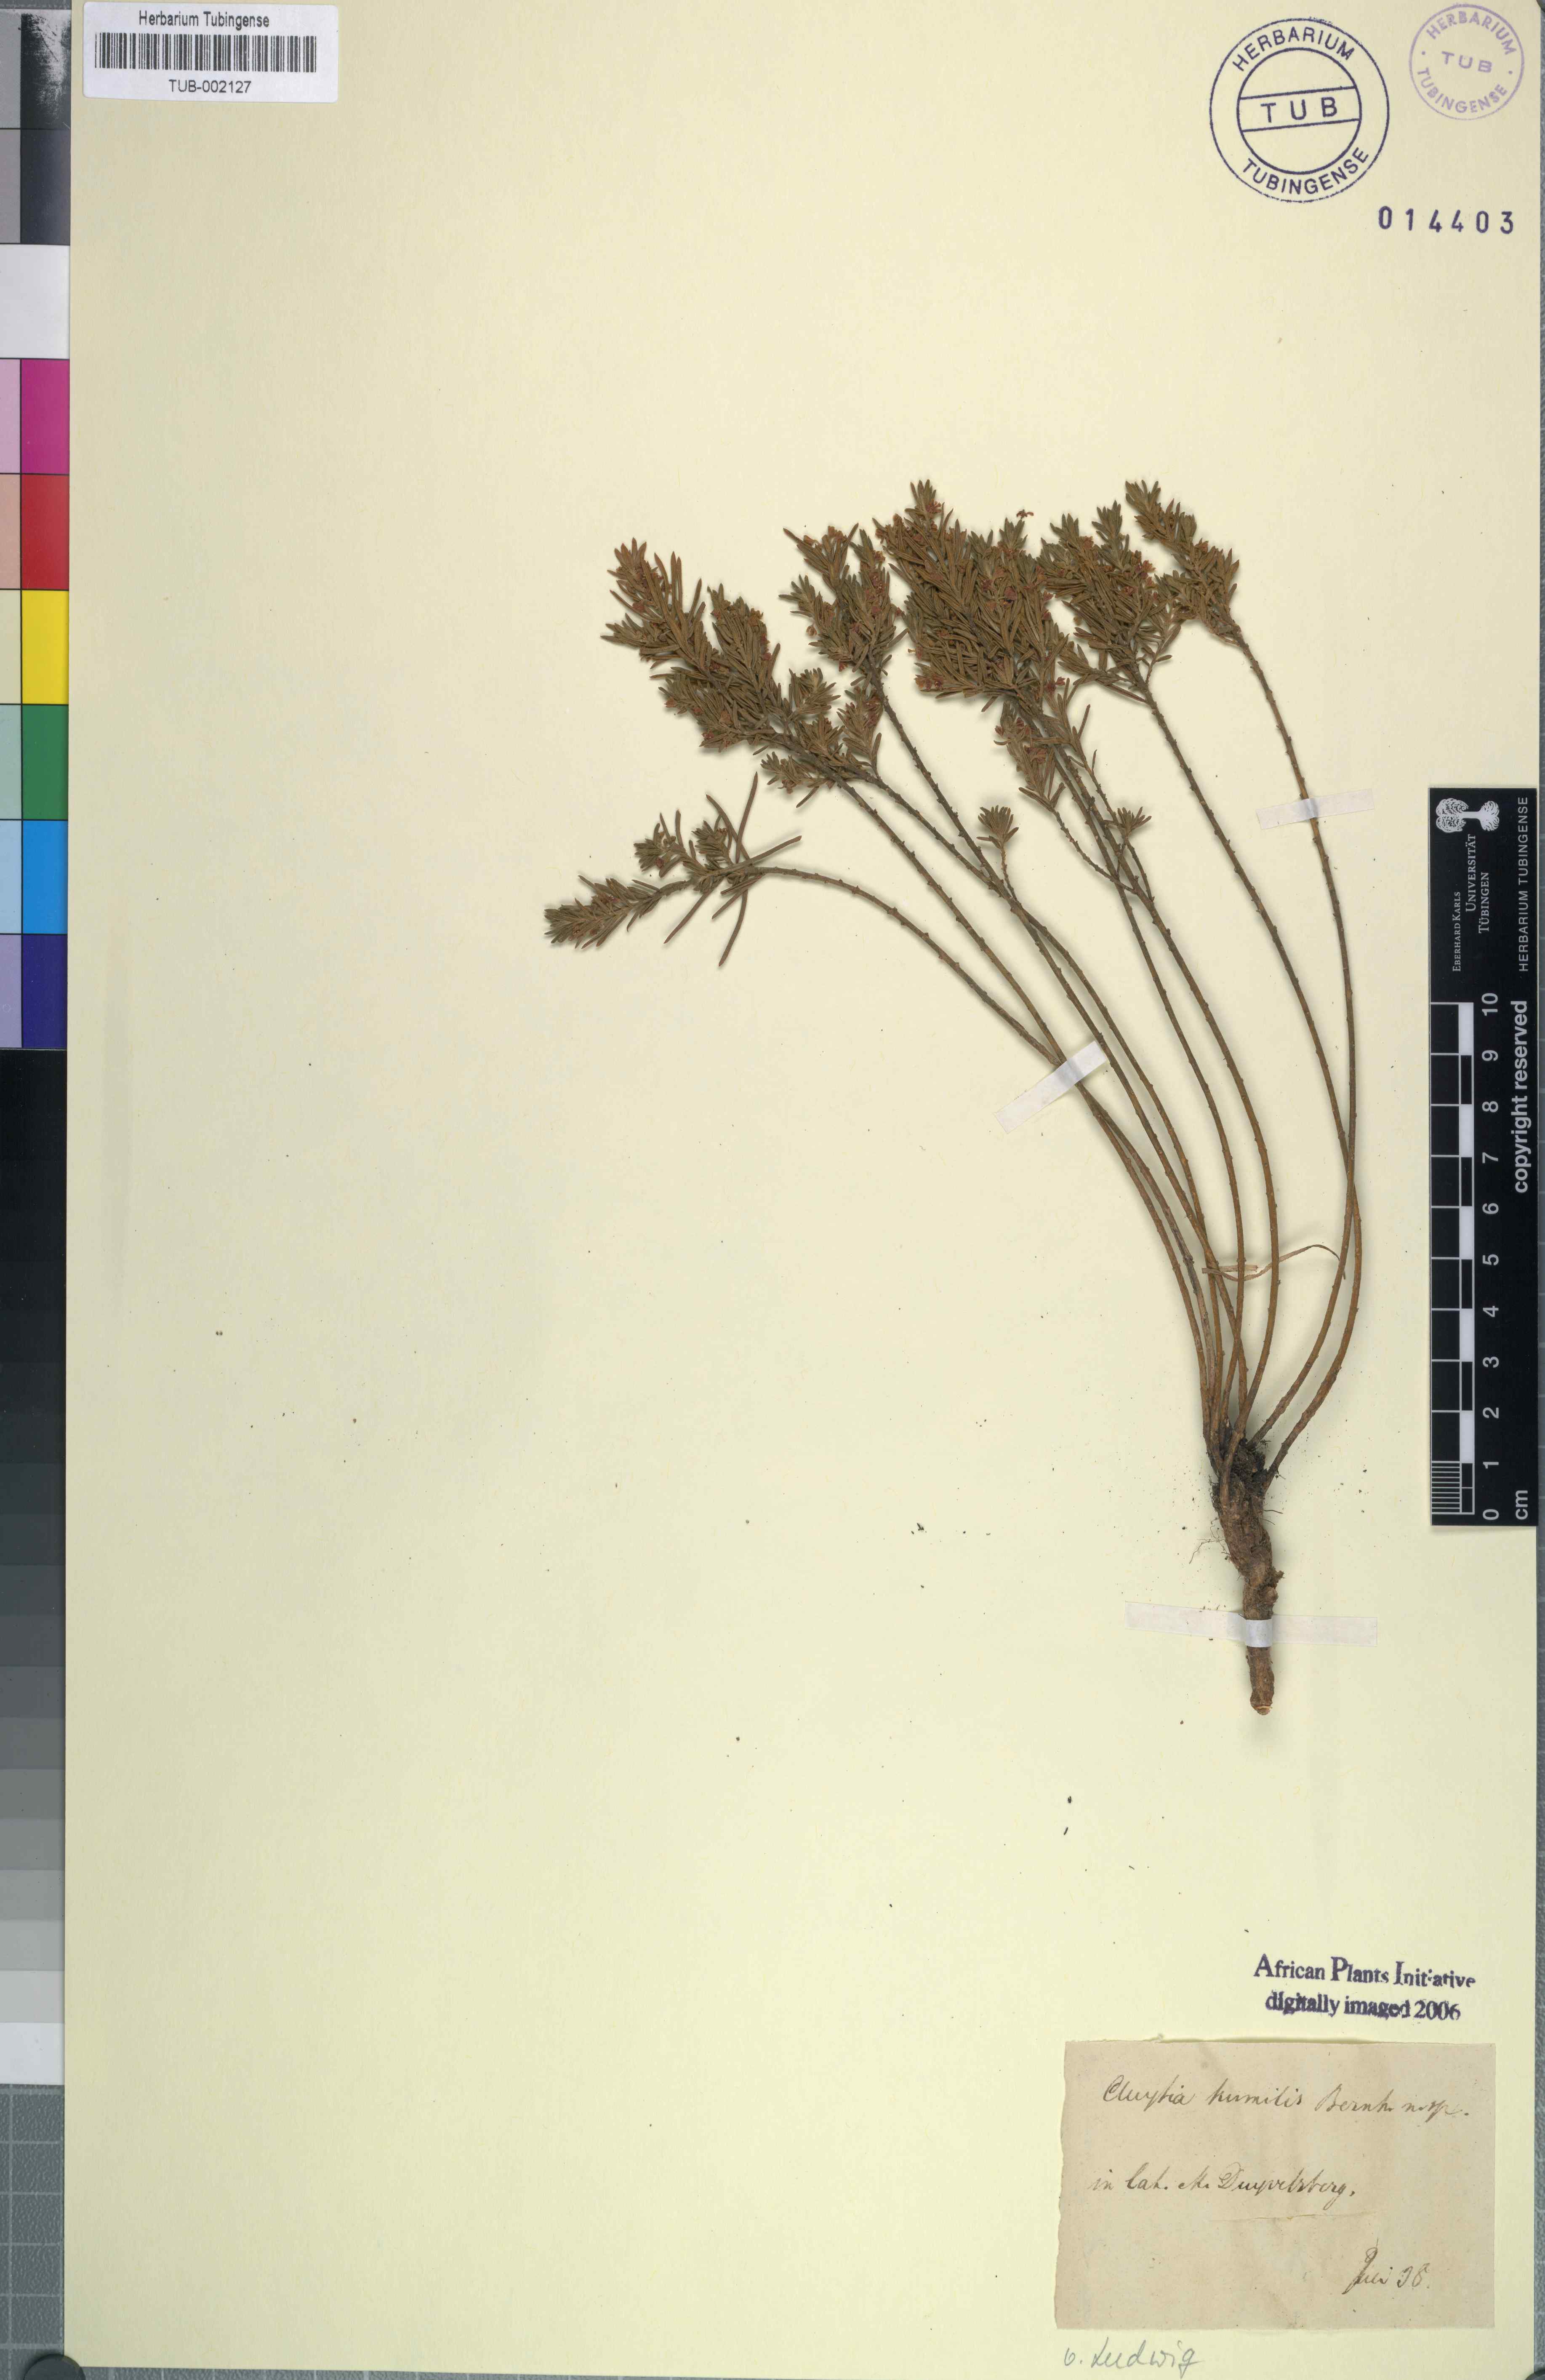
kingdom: Plantae
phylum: Tracheophyta
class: Magnoliopsida
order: Malpighiales
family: Peraceae
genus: Clutia
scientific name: Clutia pubescens
